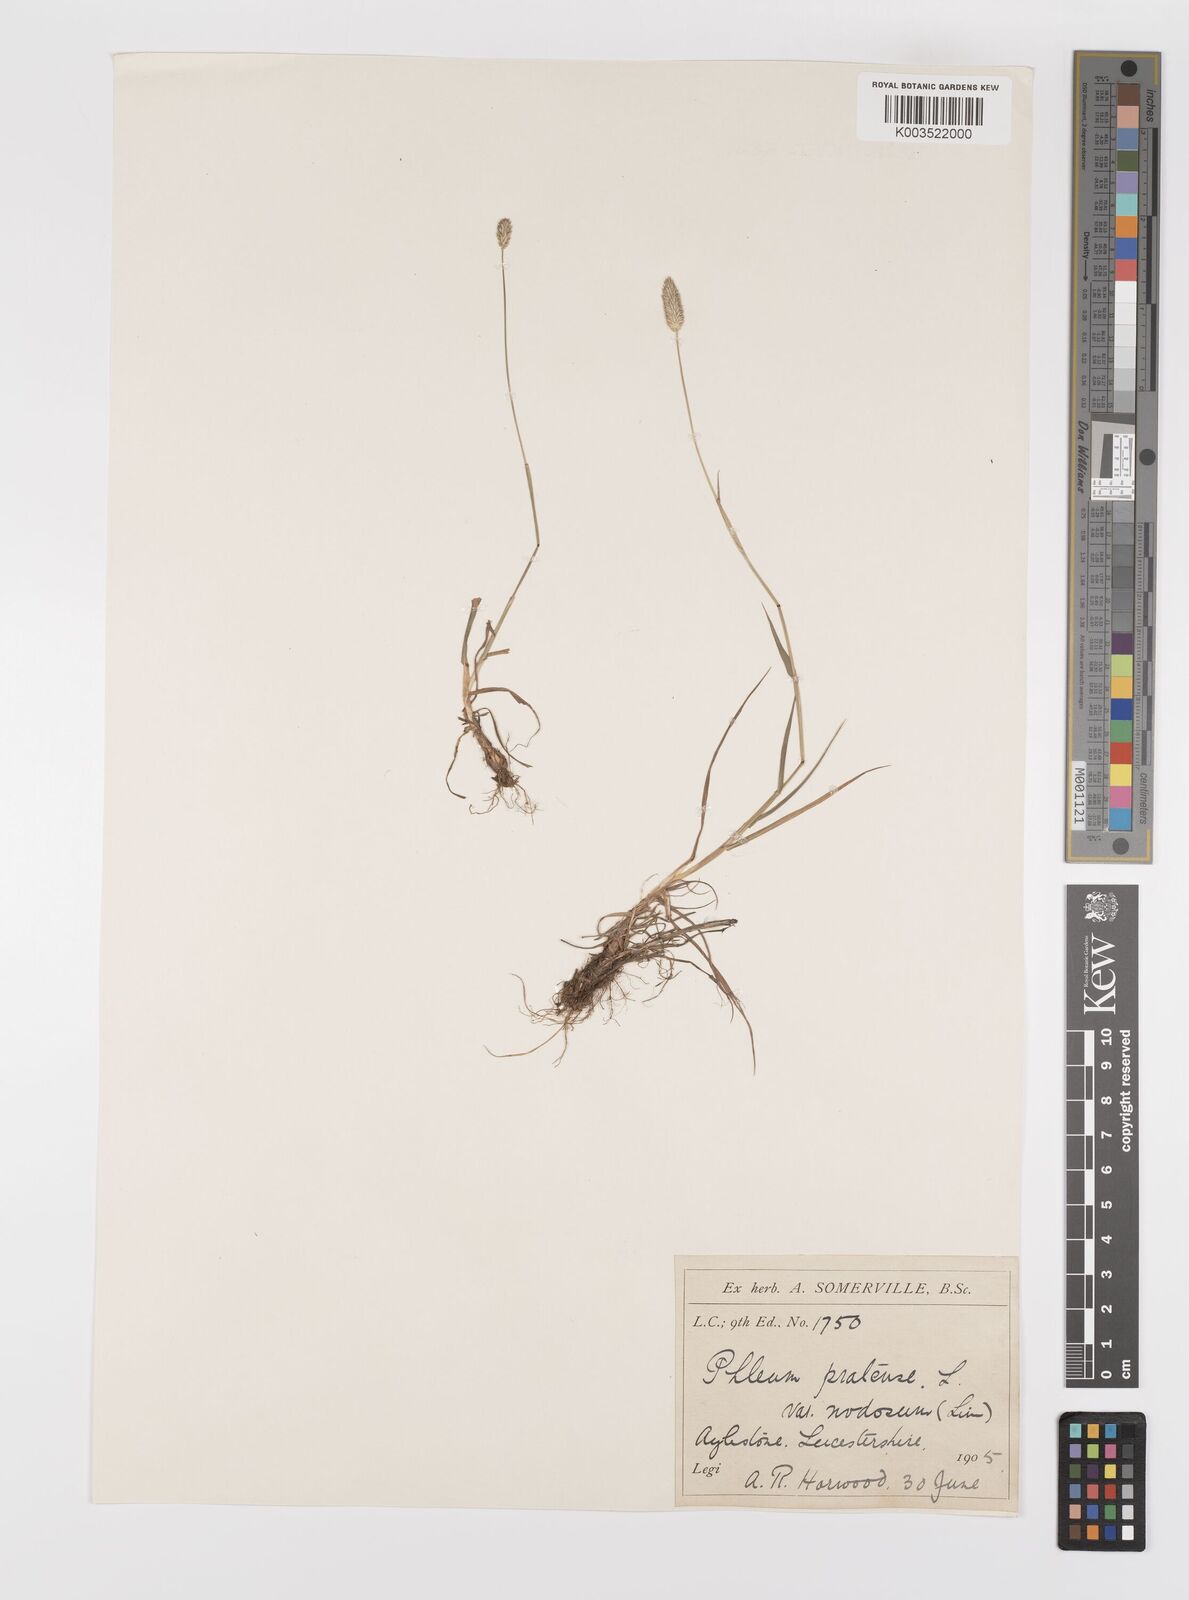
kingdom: Plantae
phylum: Tracheophyta
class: Liliopsida
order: Poales
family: Poaceae
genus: Phleum
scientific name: Phleum bertolonii
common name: Smaller cat's-tail
